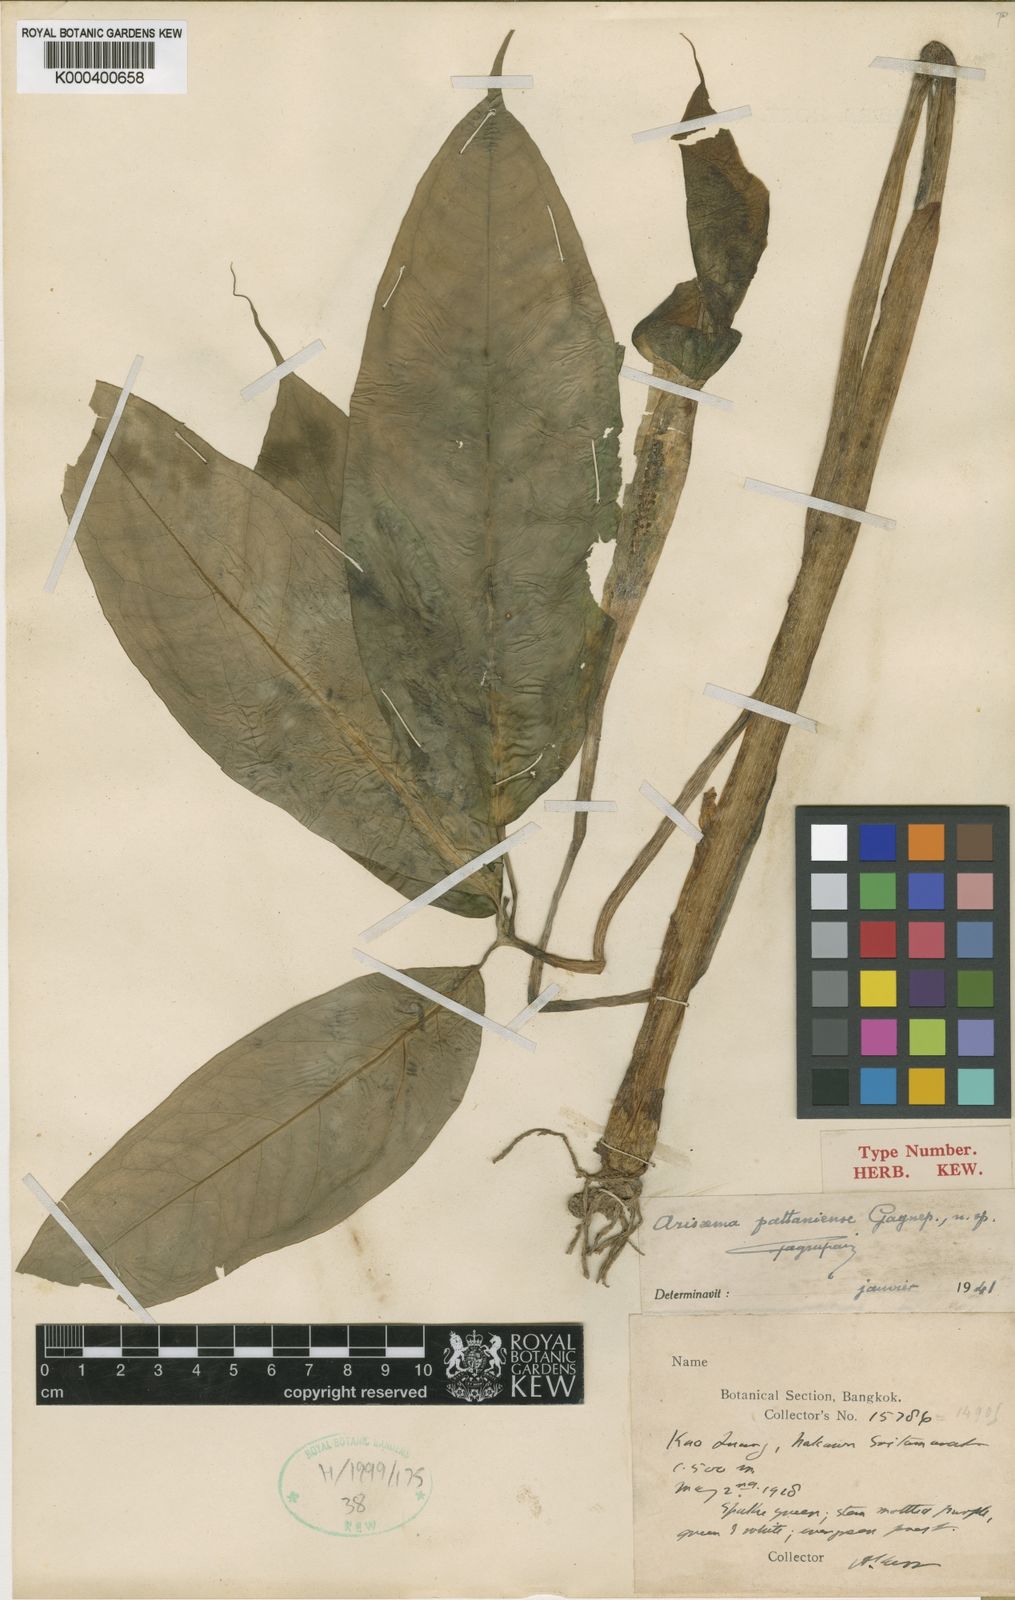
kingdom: Plantae
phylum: Tracheophyta
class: Liliopsida
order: Alismatales
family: Araceae
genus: Arisaema
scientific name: Arisaema pattaniense
